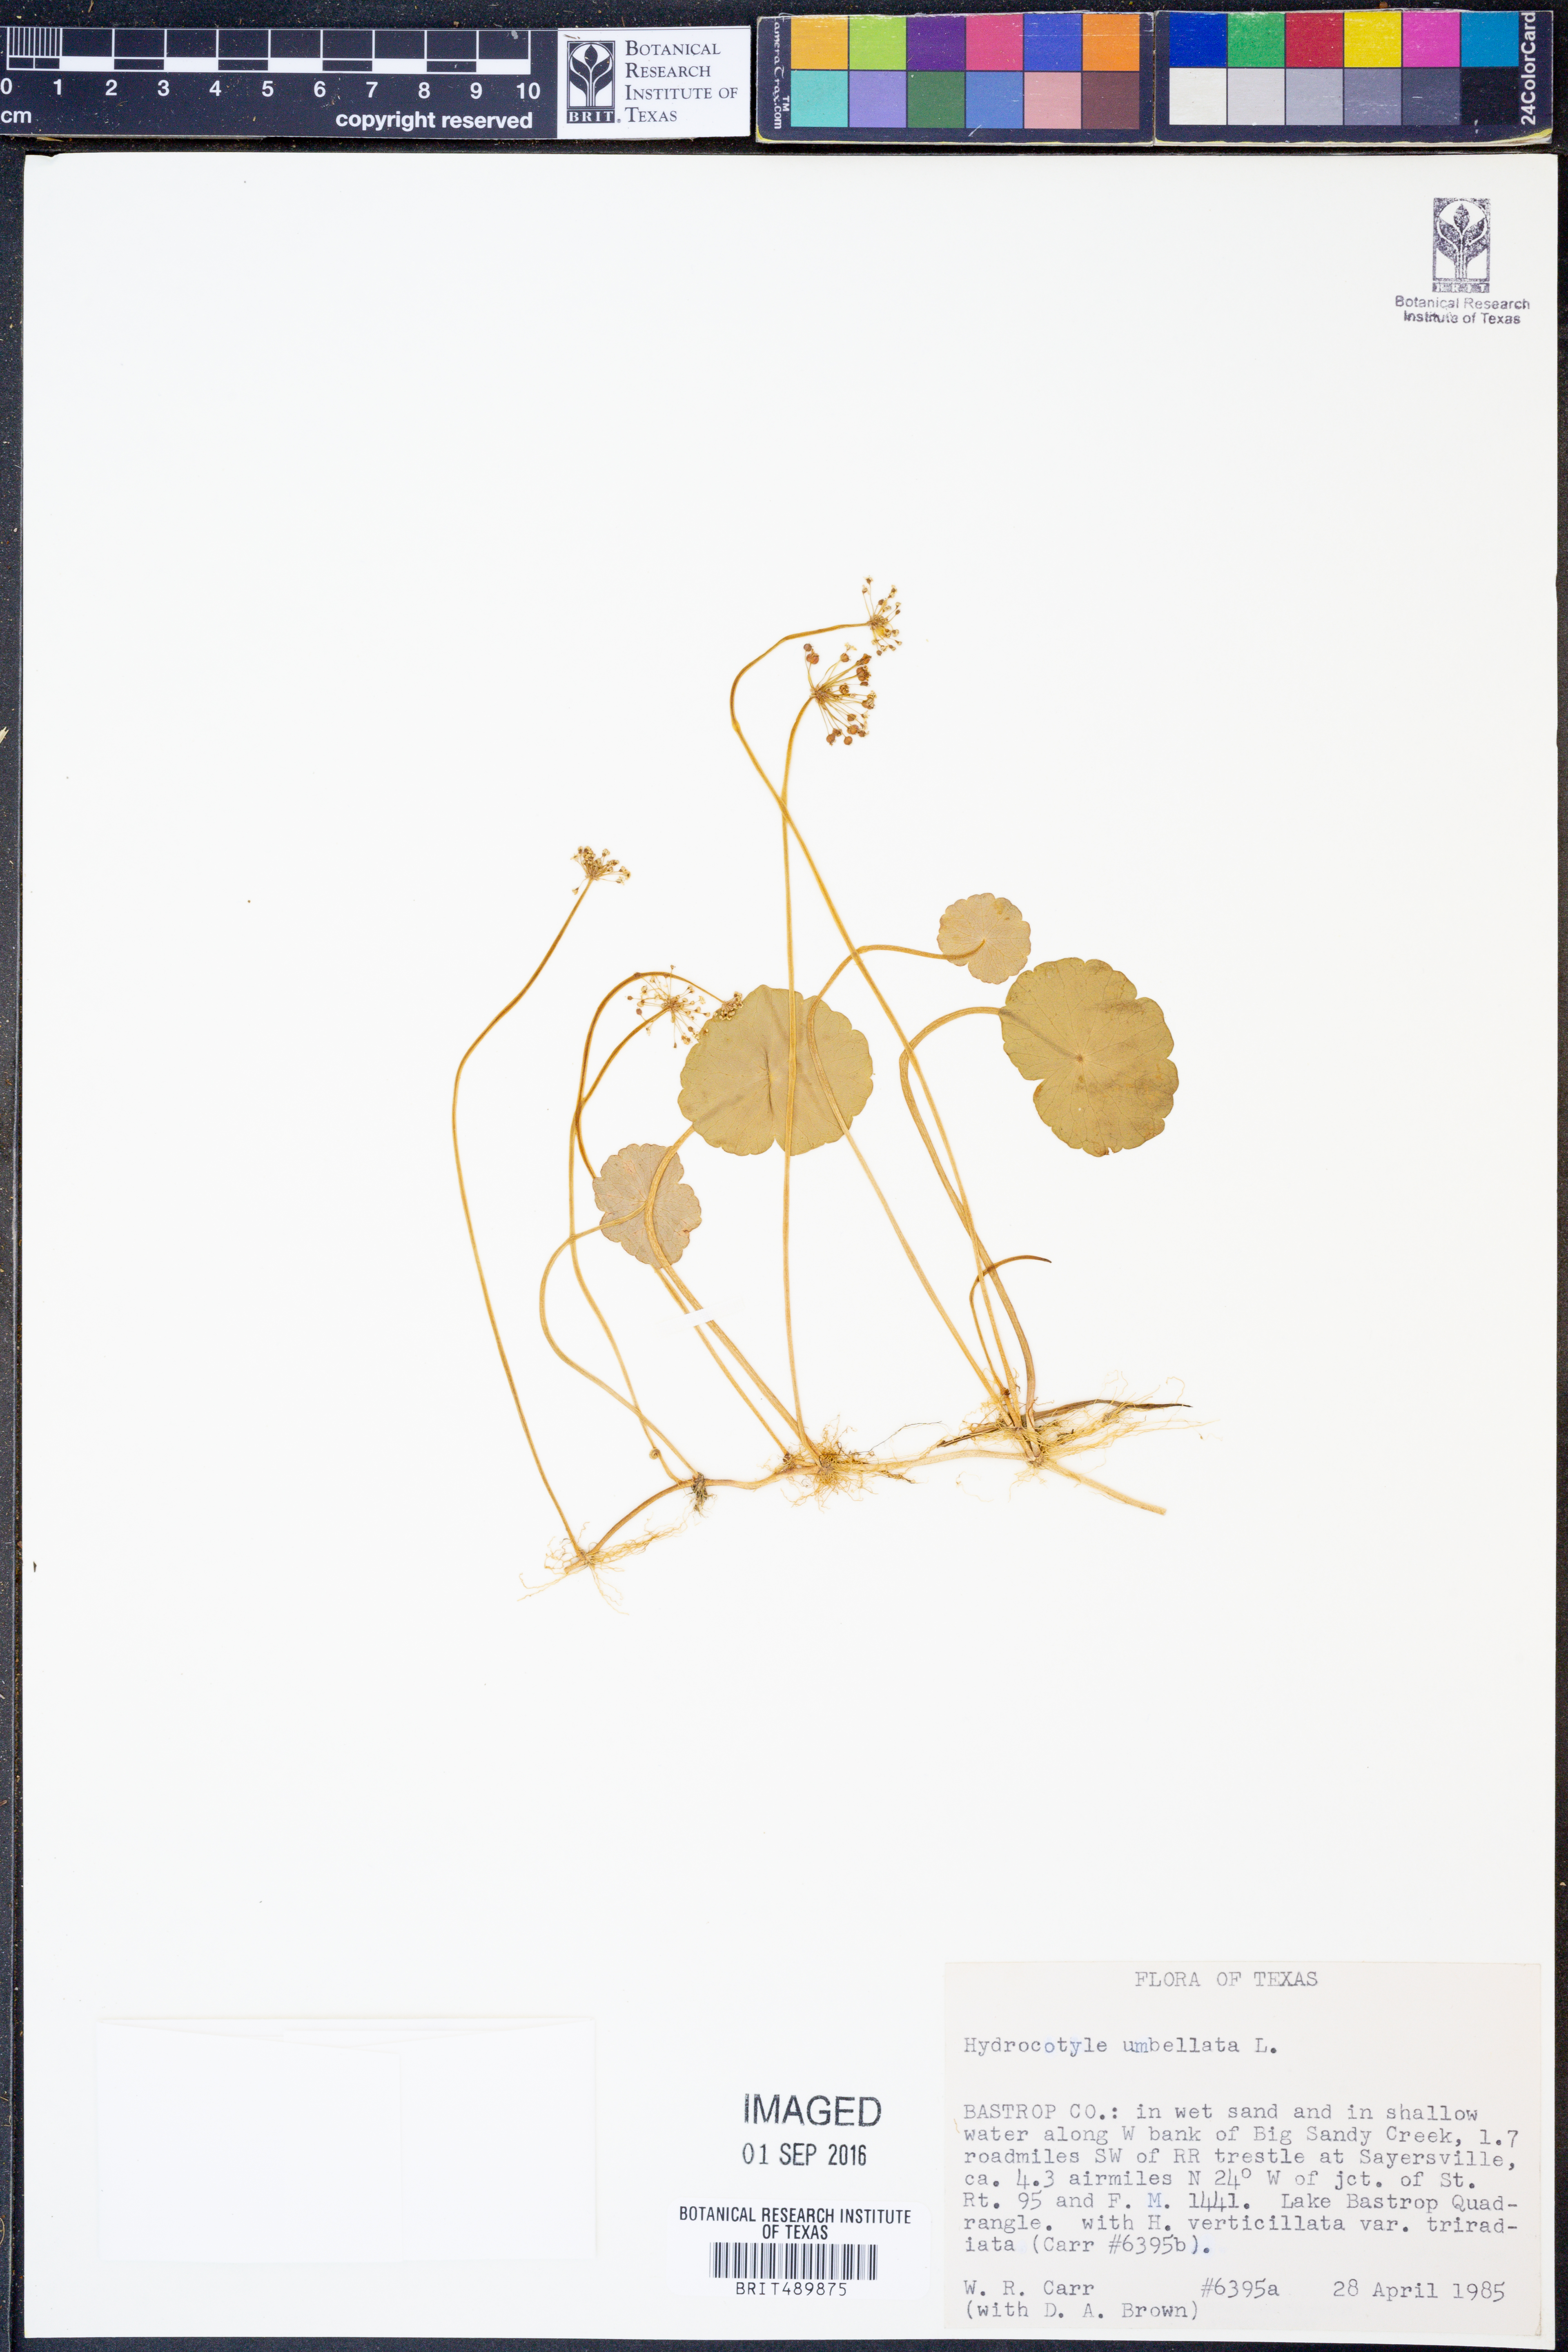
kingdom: Plantae
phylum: Tracheophyta
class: Magnoliopsida
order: Apiales
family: Araliaceae
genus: Hydrocotyle
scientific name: Hydrocotyle umbellata
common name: Water pennywort
